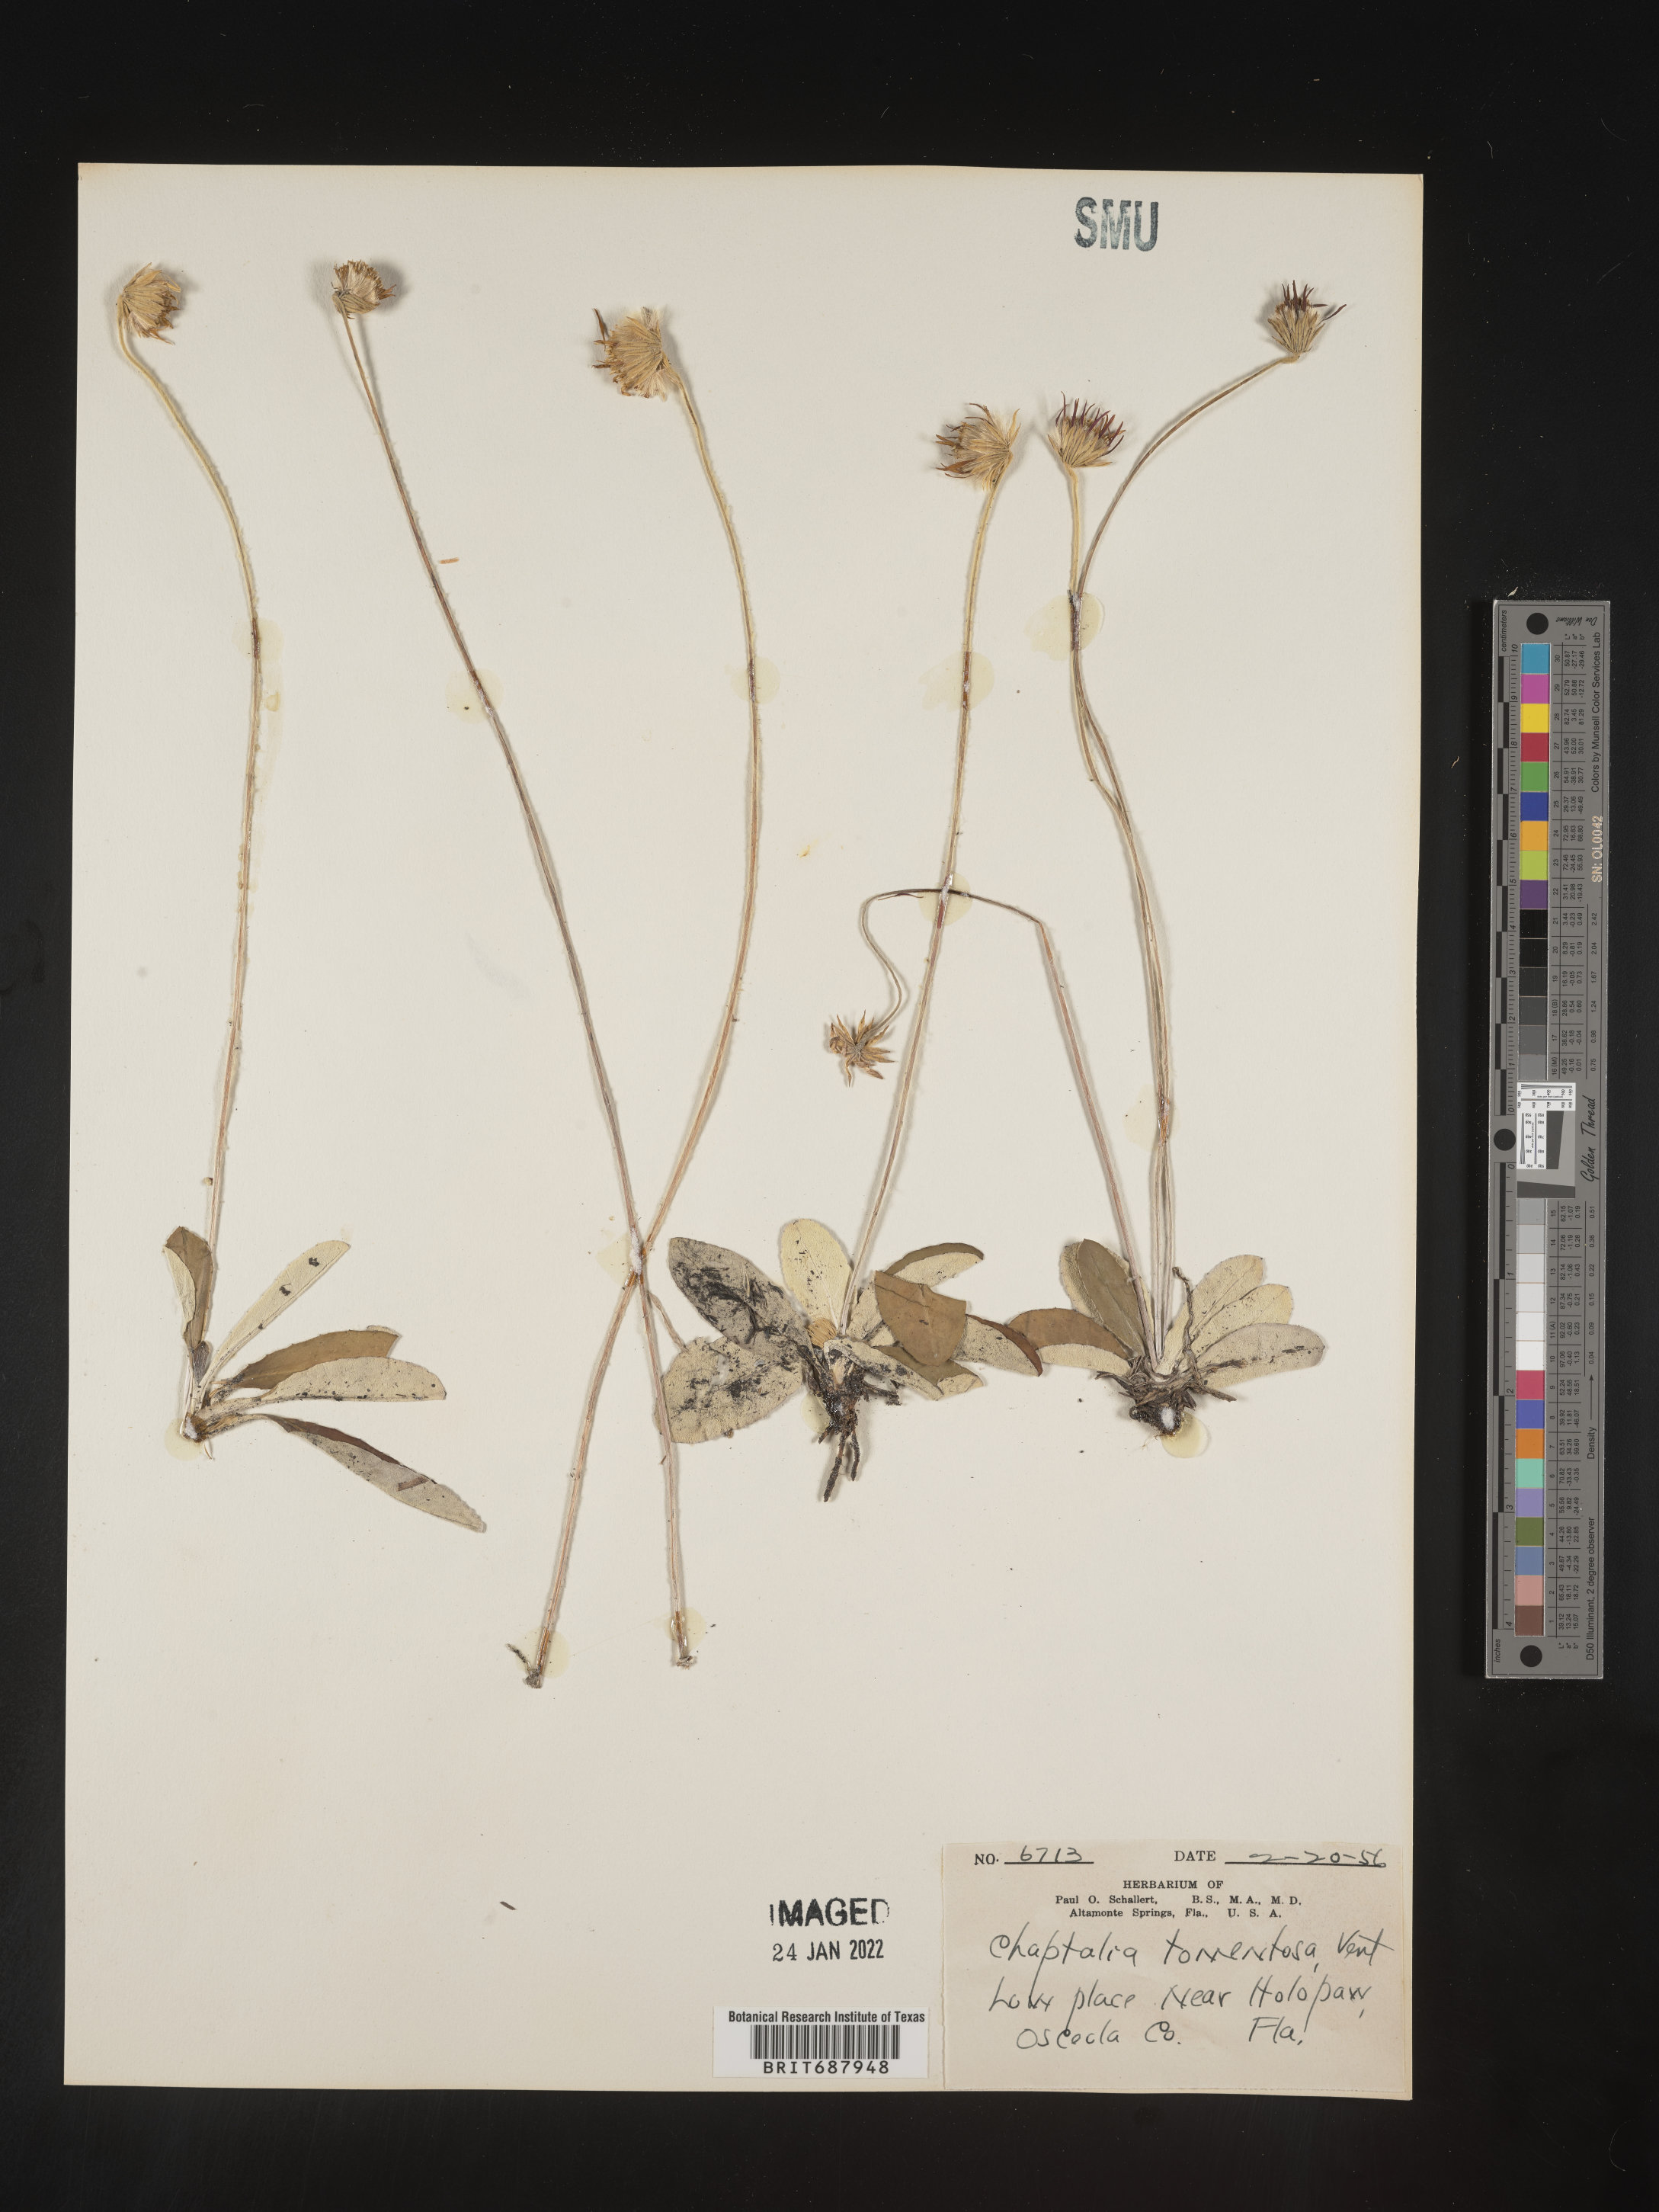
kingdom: Plantae
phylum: Tracheophyta
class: Magnoliopsida
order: Asterales
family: Asteraceae
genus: Chaptalia
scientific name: Chaptalia tomentosa
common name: Woolly sunbonnet
